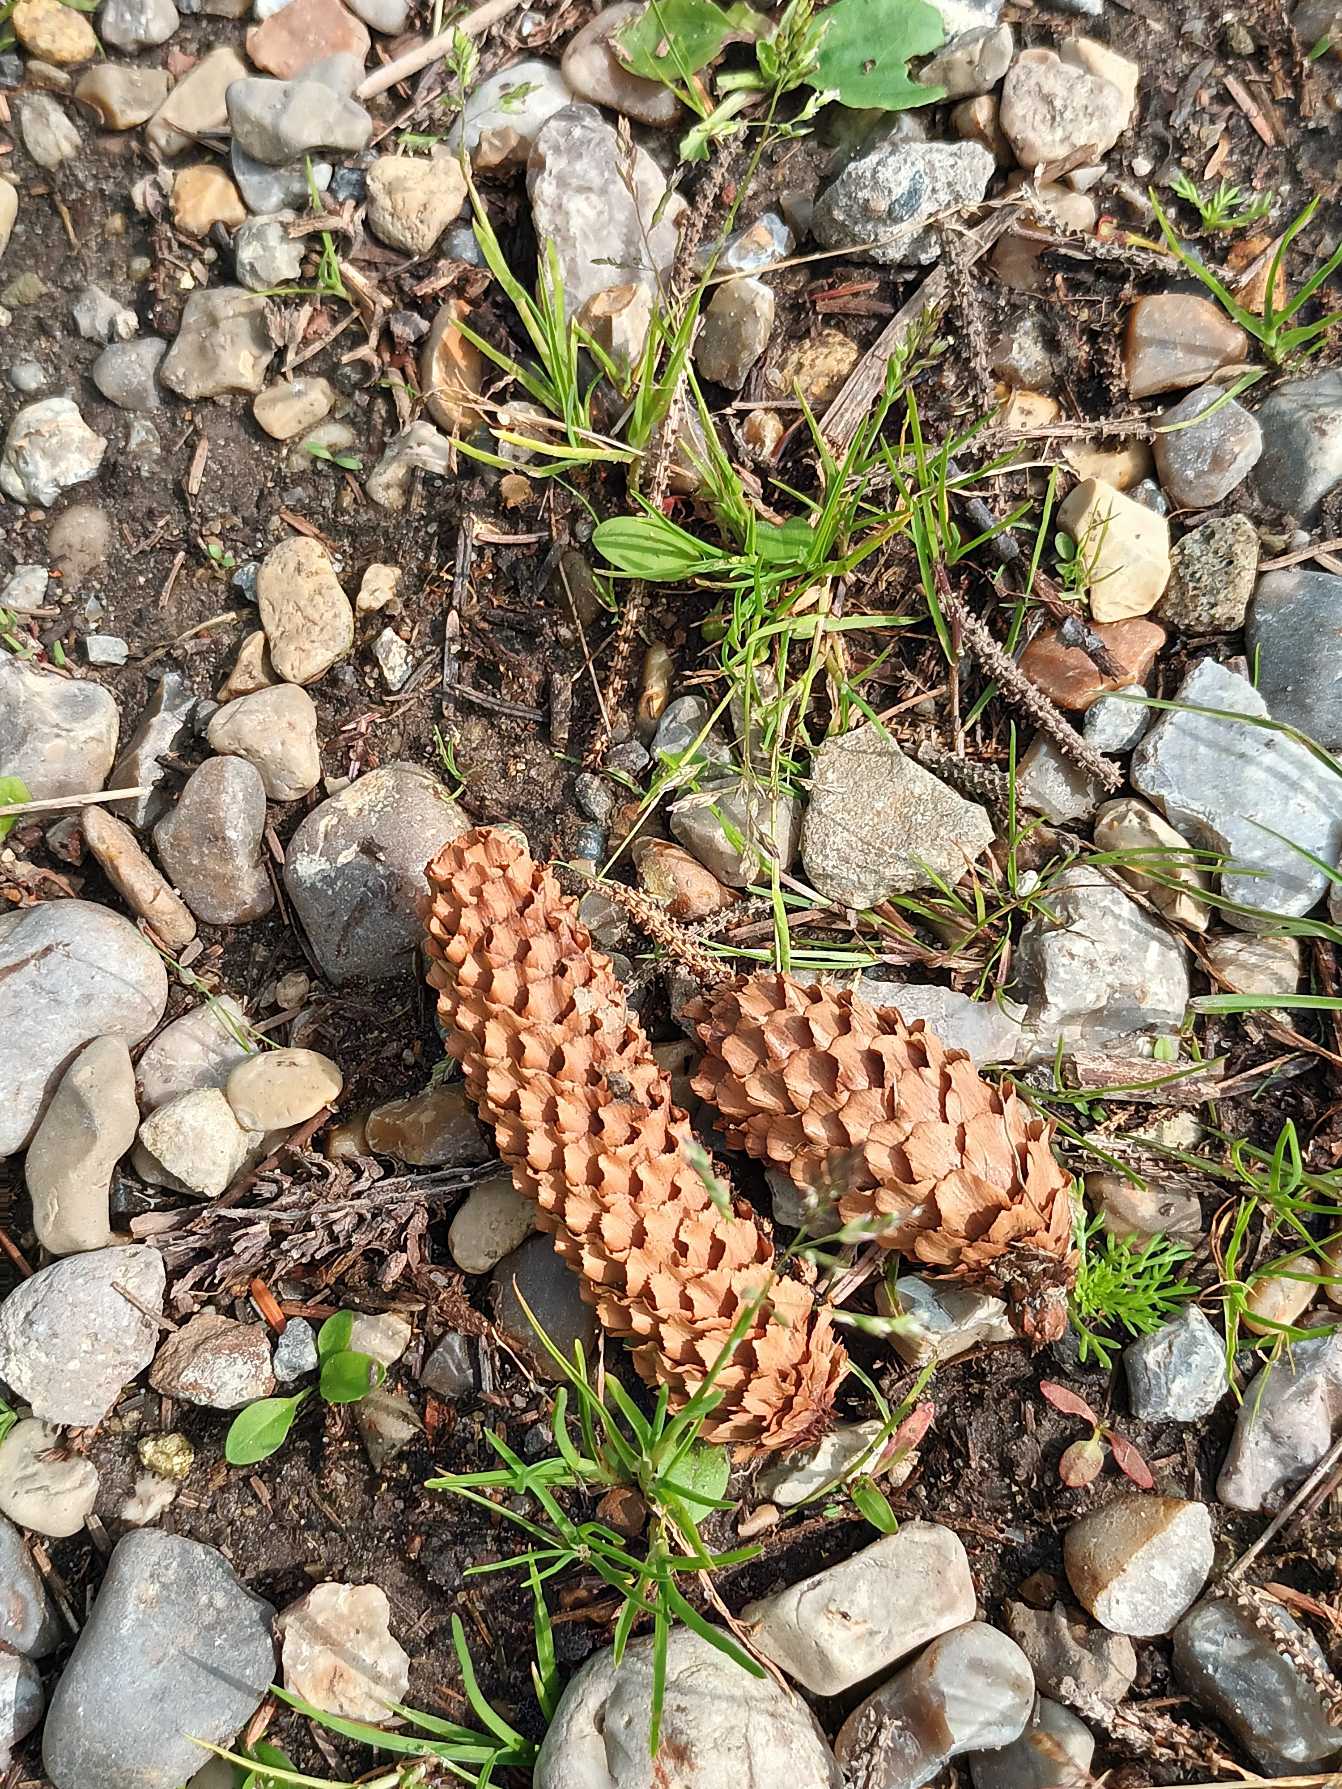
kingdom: Plantae
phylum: Tracheophyta
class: Pinopsida
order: Pinales
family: Pinaceae
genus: Picea
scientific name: Picea sitchensis
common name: Sitka-gran
